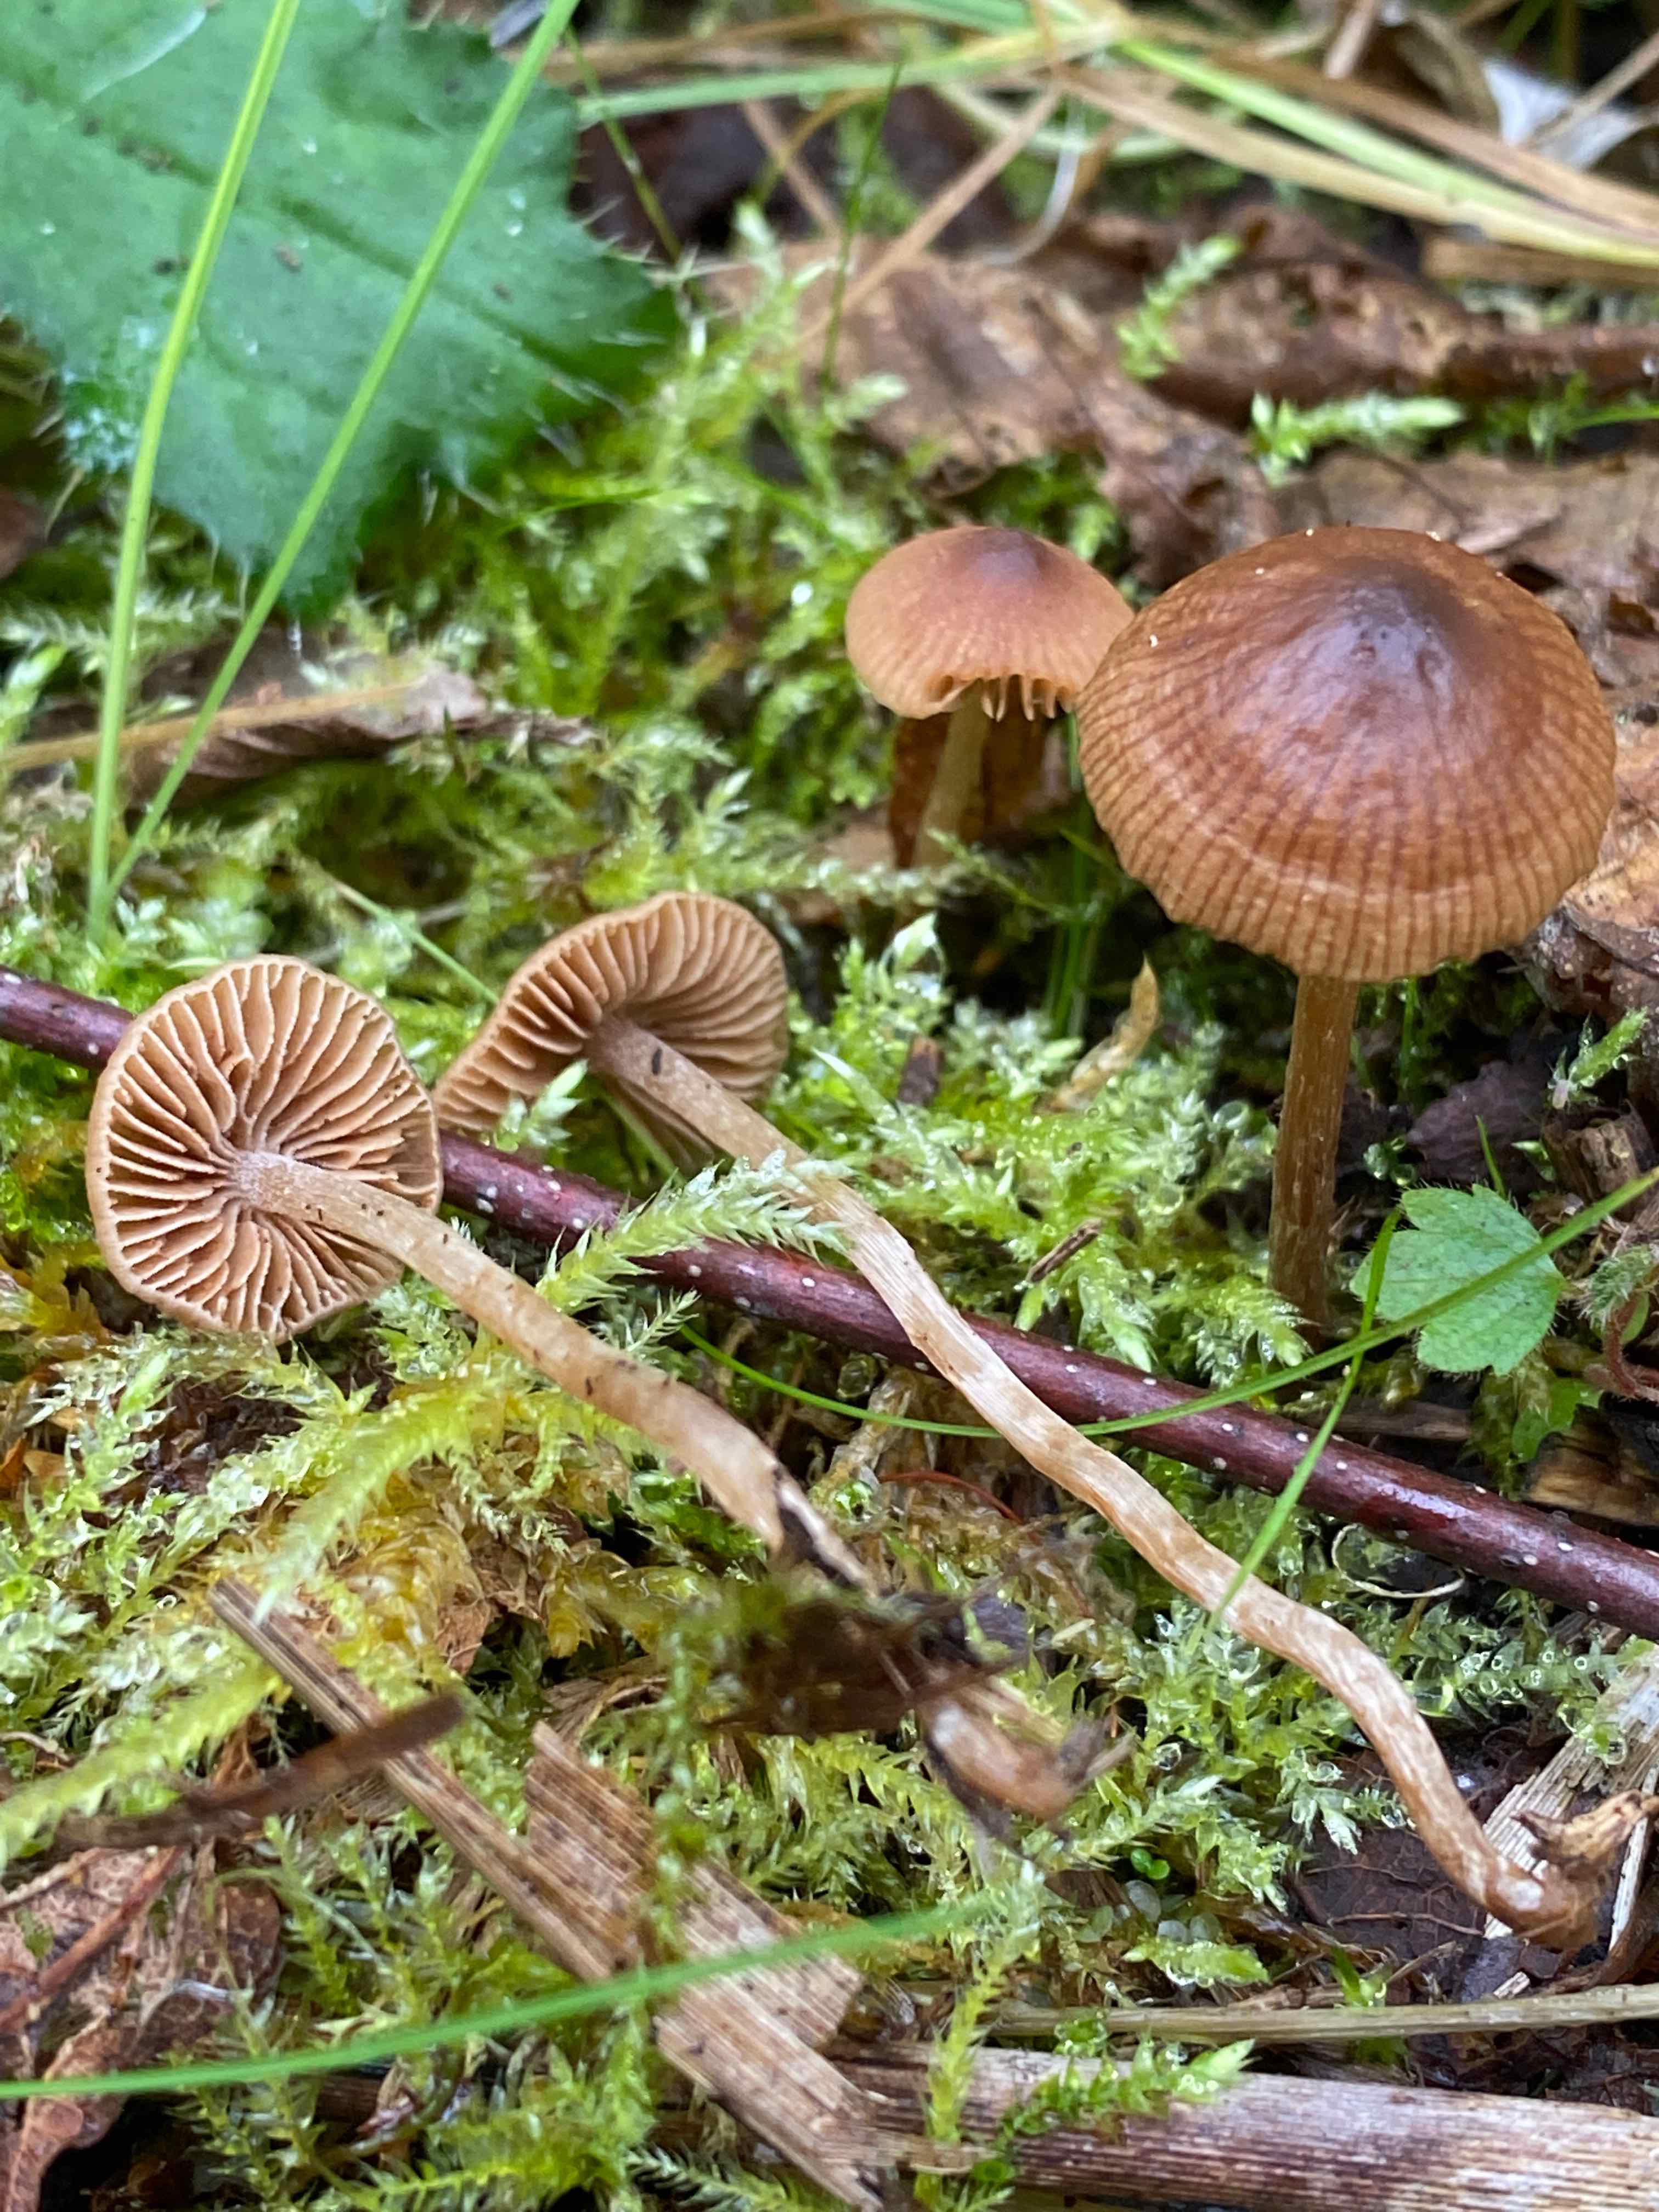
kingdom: Fungi
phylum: Basidiomycota
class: Agaricomycetes
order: Agaricales
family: Hymenogastraceae
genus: Naucoria
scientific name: Naucoria
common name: knaphat
